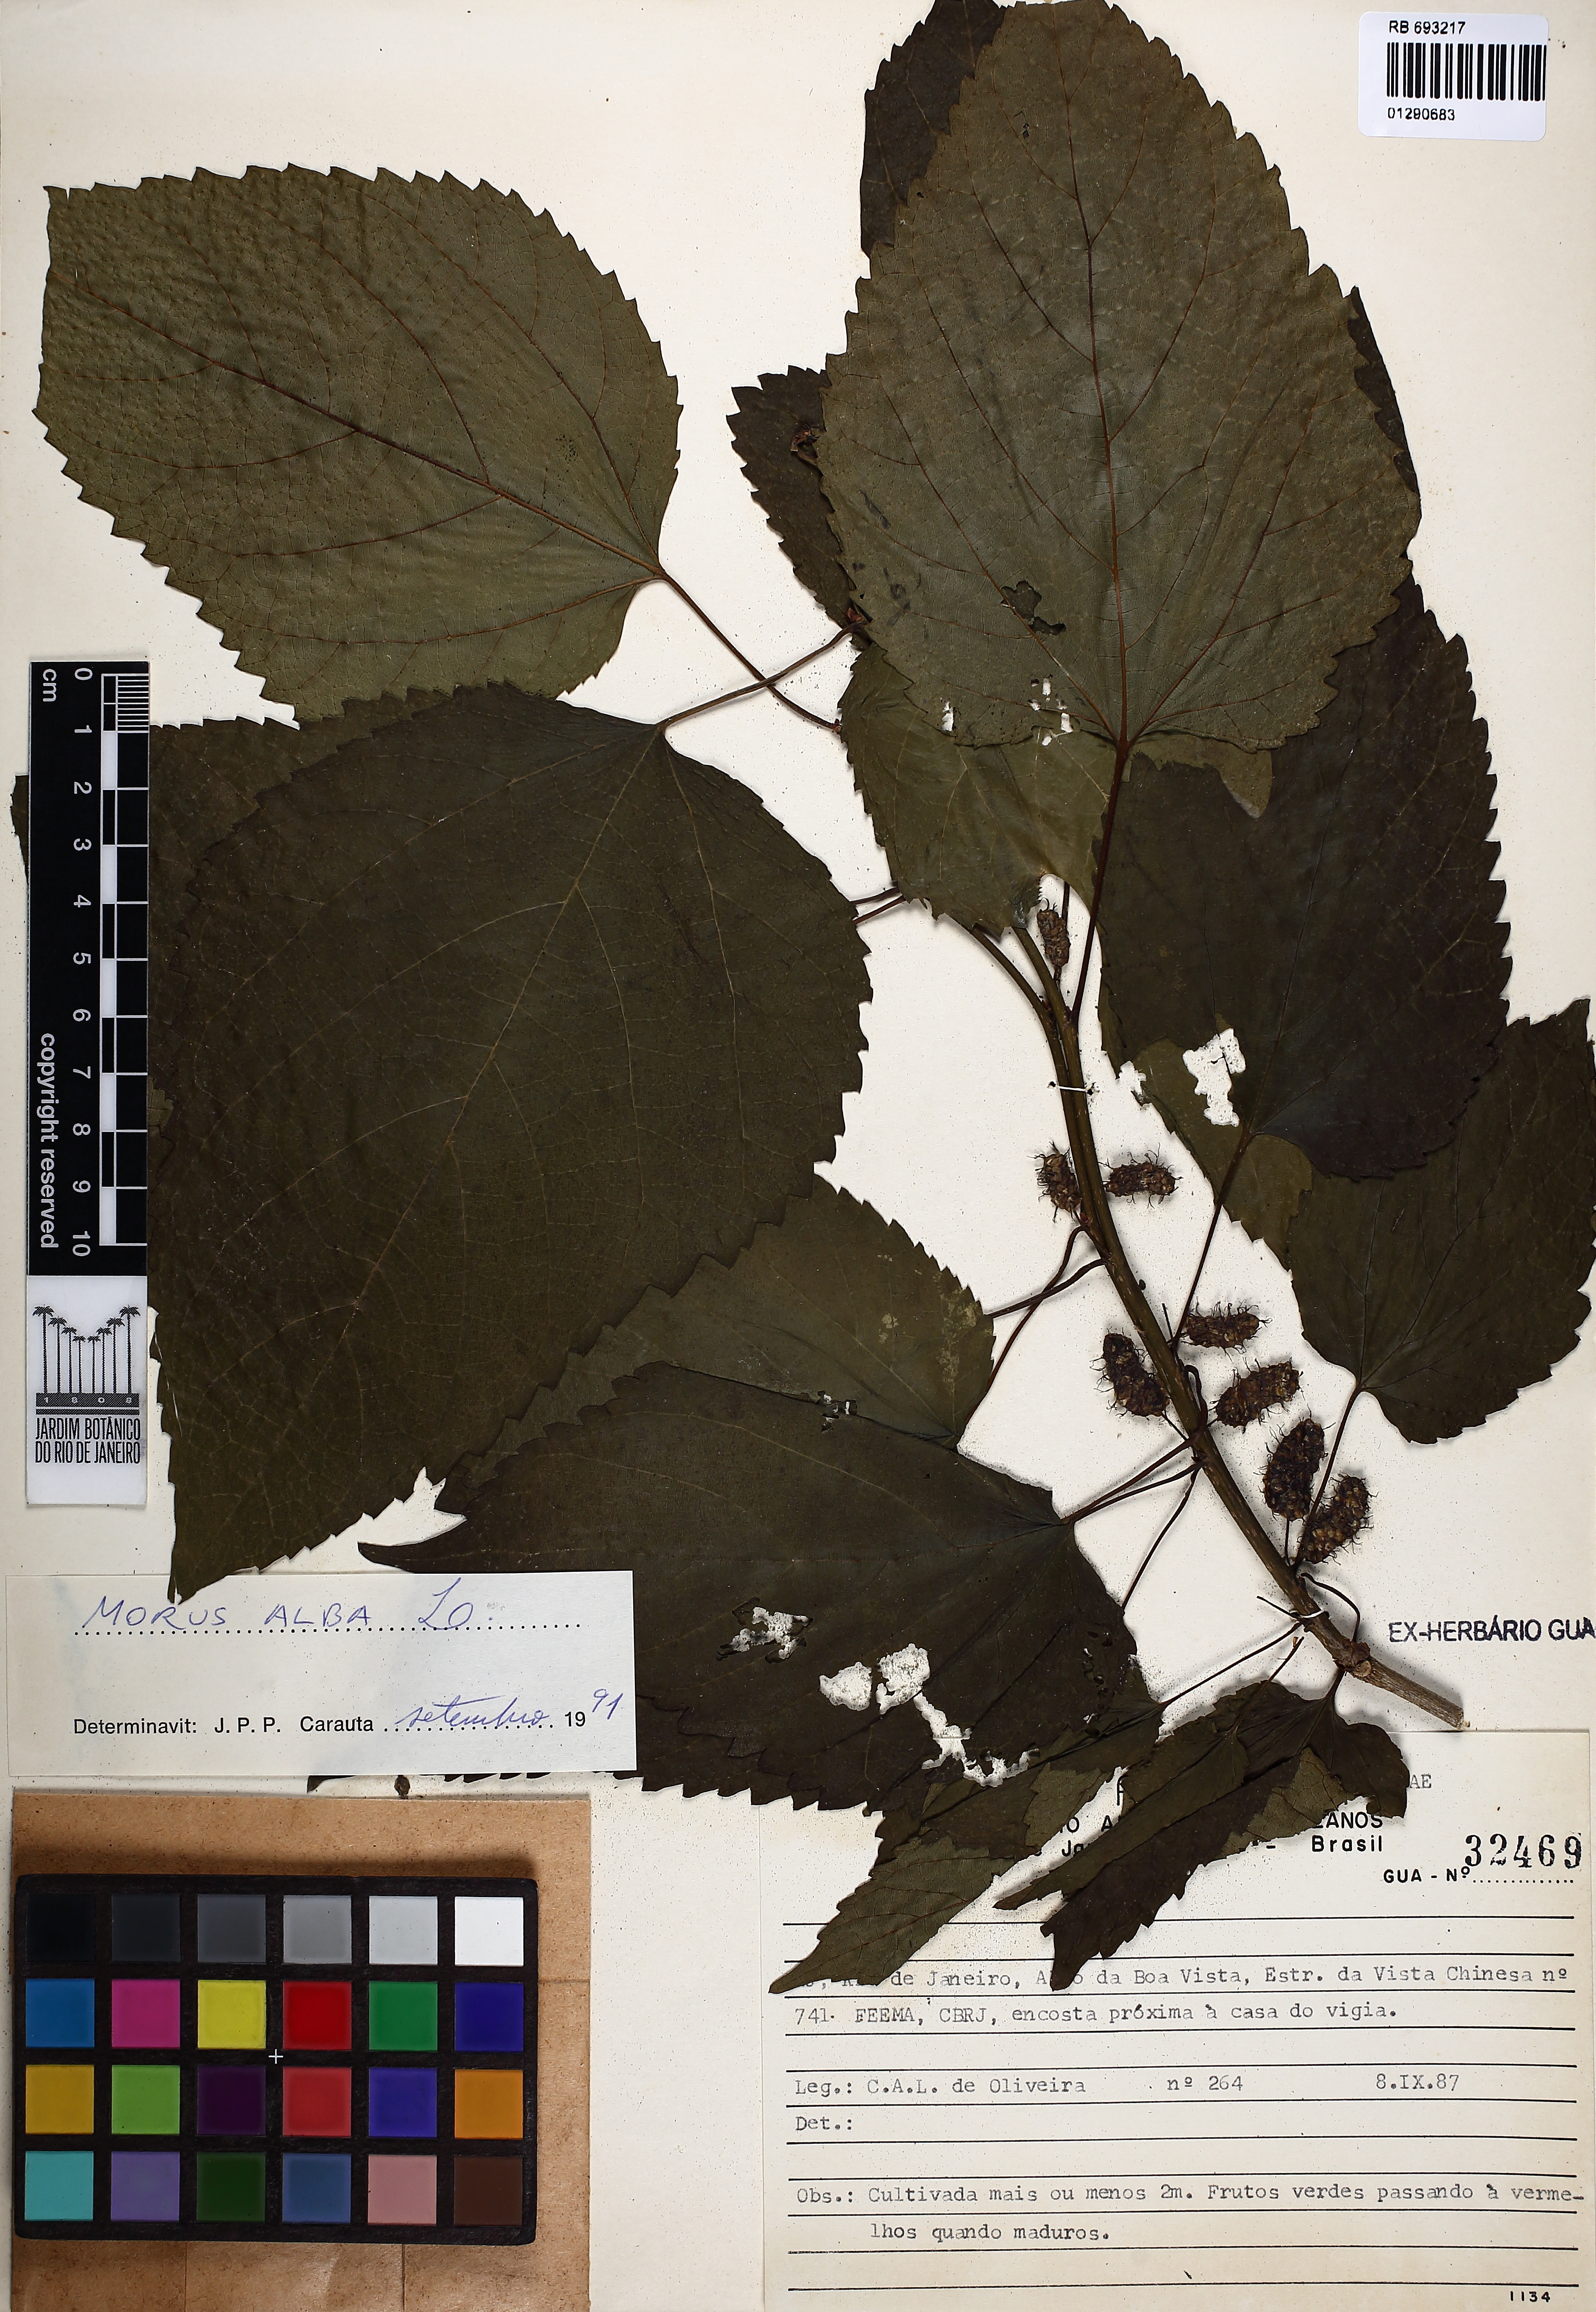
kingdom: Plantae
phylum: Tracheophyta
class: Magnoliopsida
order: Rosales
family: Moraceae
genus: Morus
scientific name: Morus alba
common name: White mulberry
